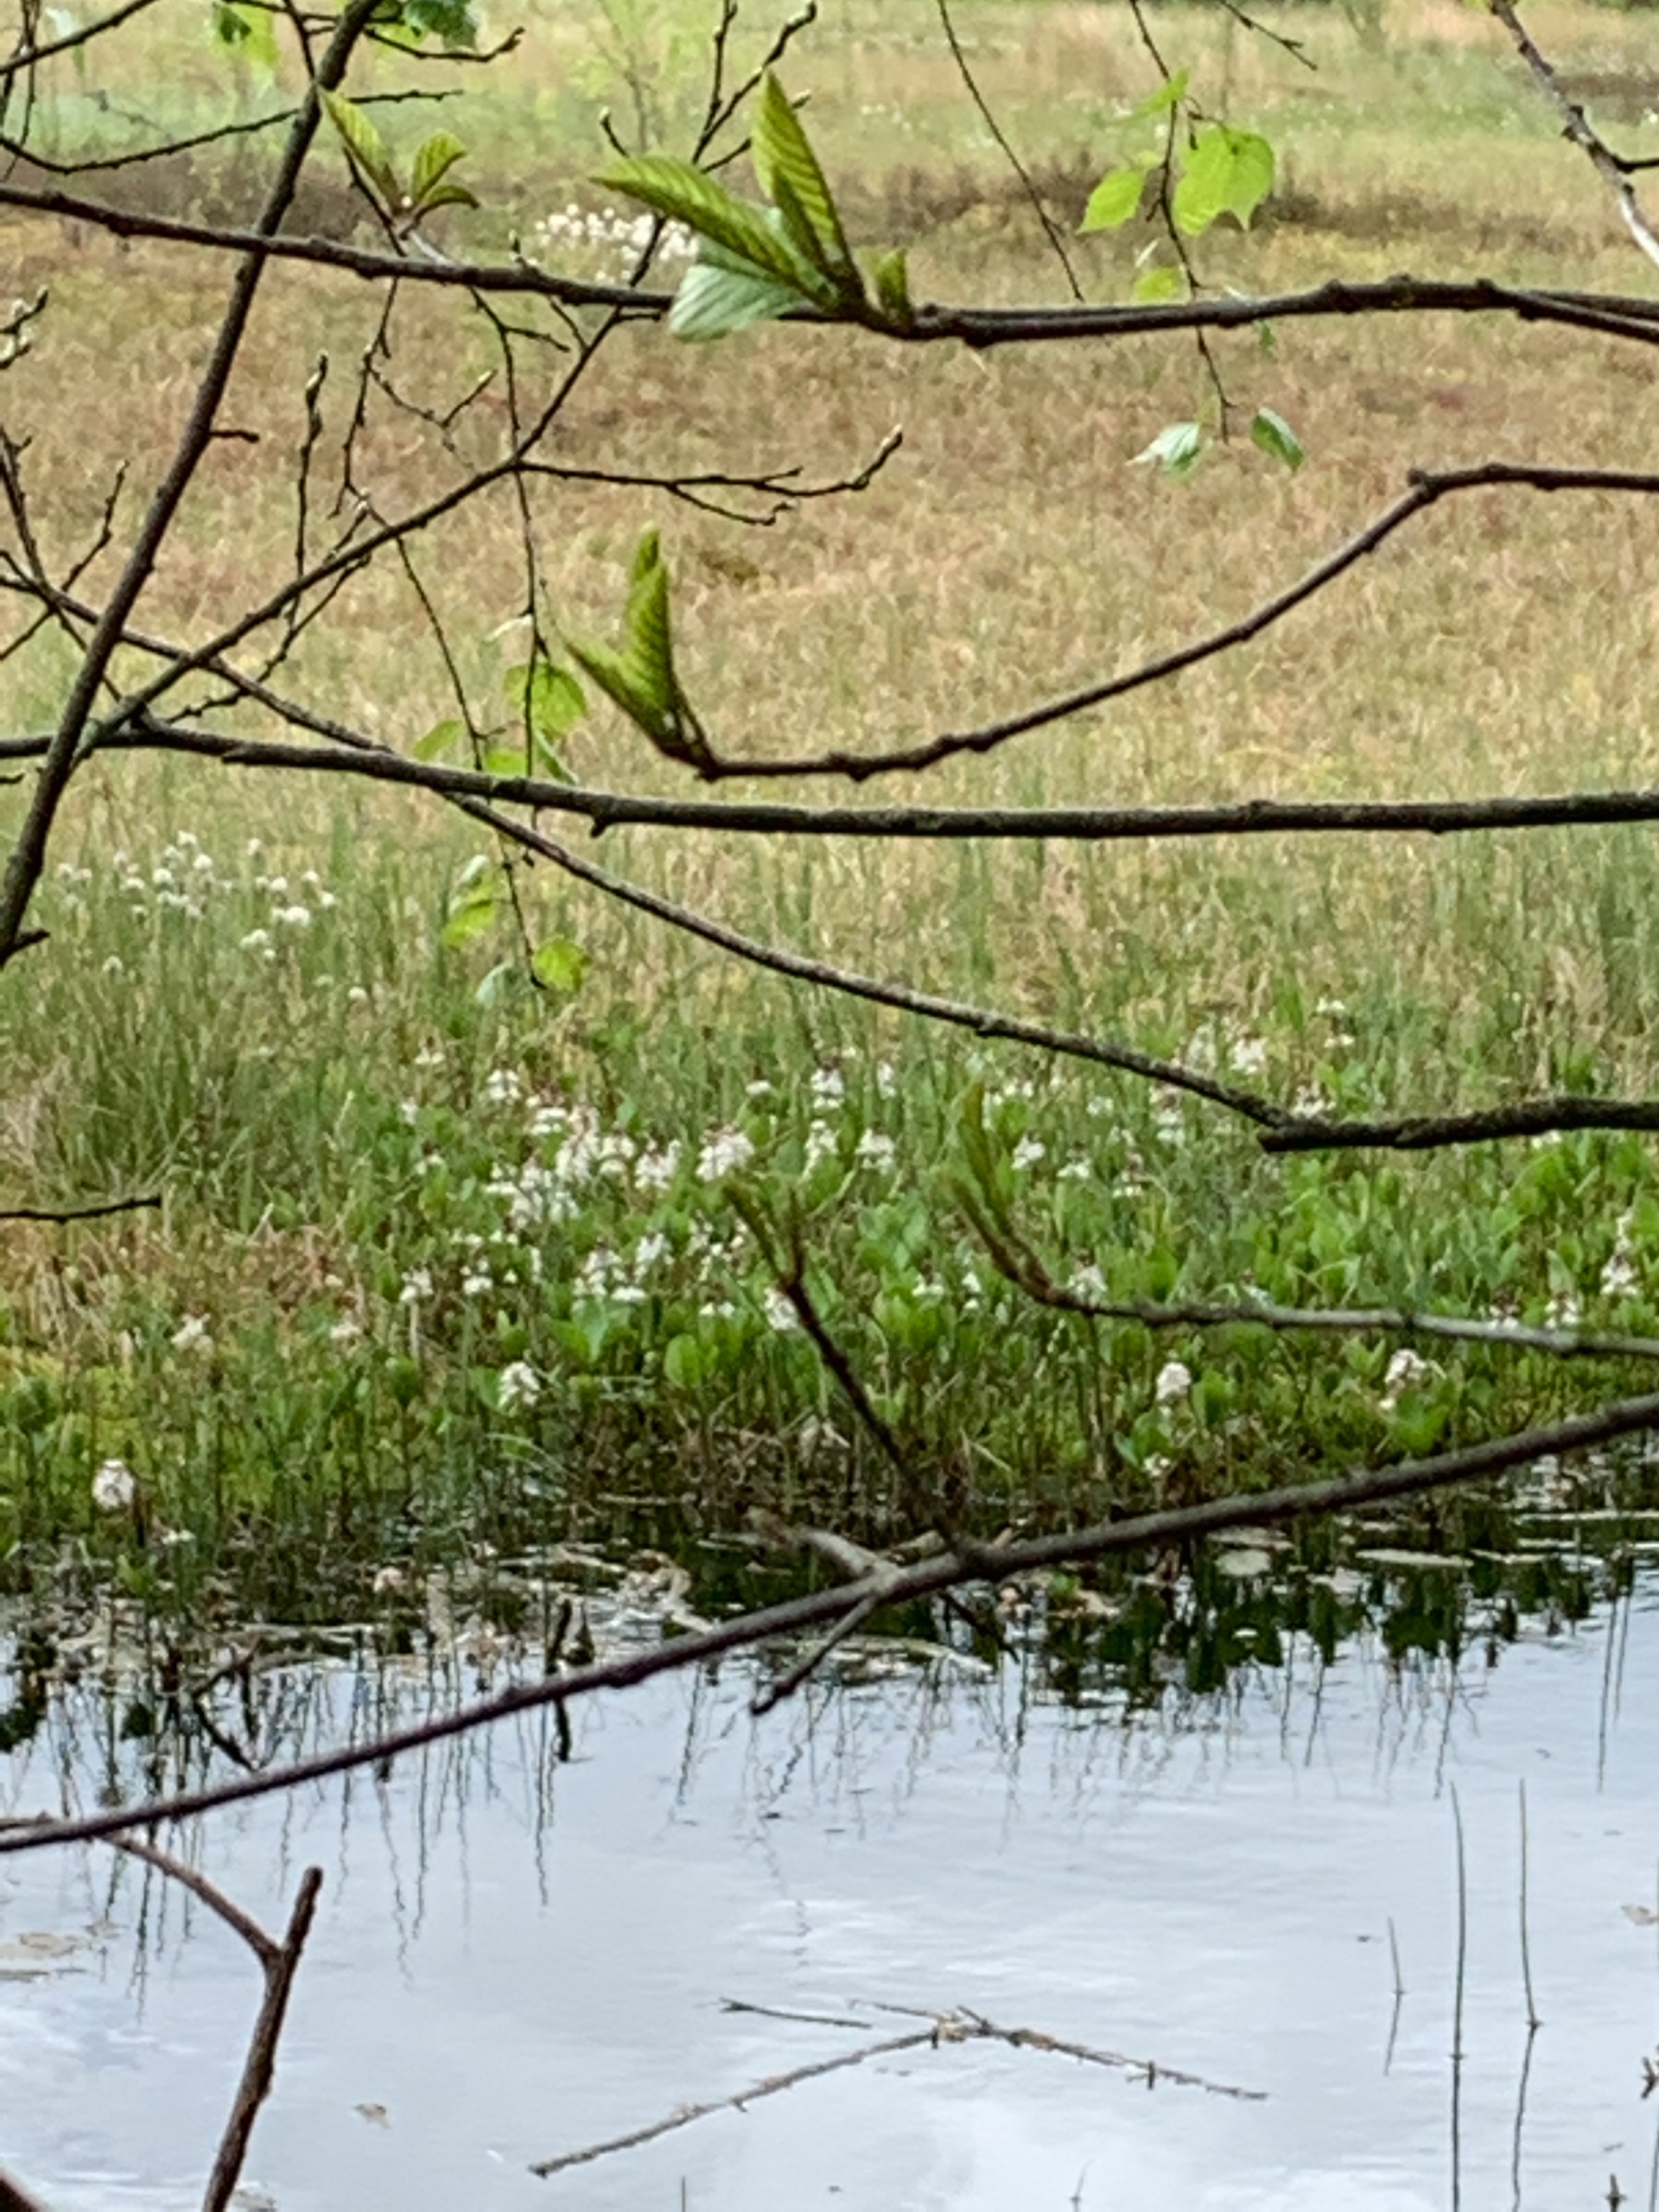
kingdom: Plantae
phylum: Tracheophyta
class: Magnoliopsida
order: Asterales
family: Menyanthaceae
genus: Menyanthes
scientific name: Menyanthes trifoliata
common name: Bukkeblad
